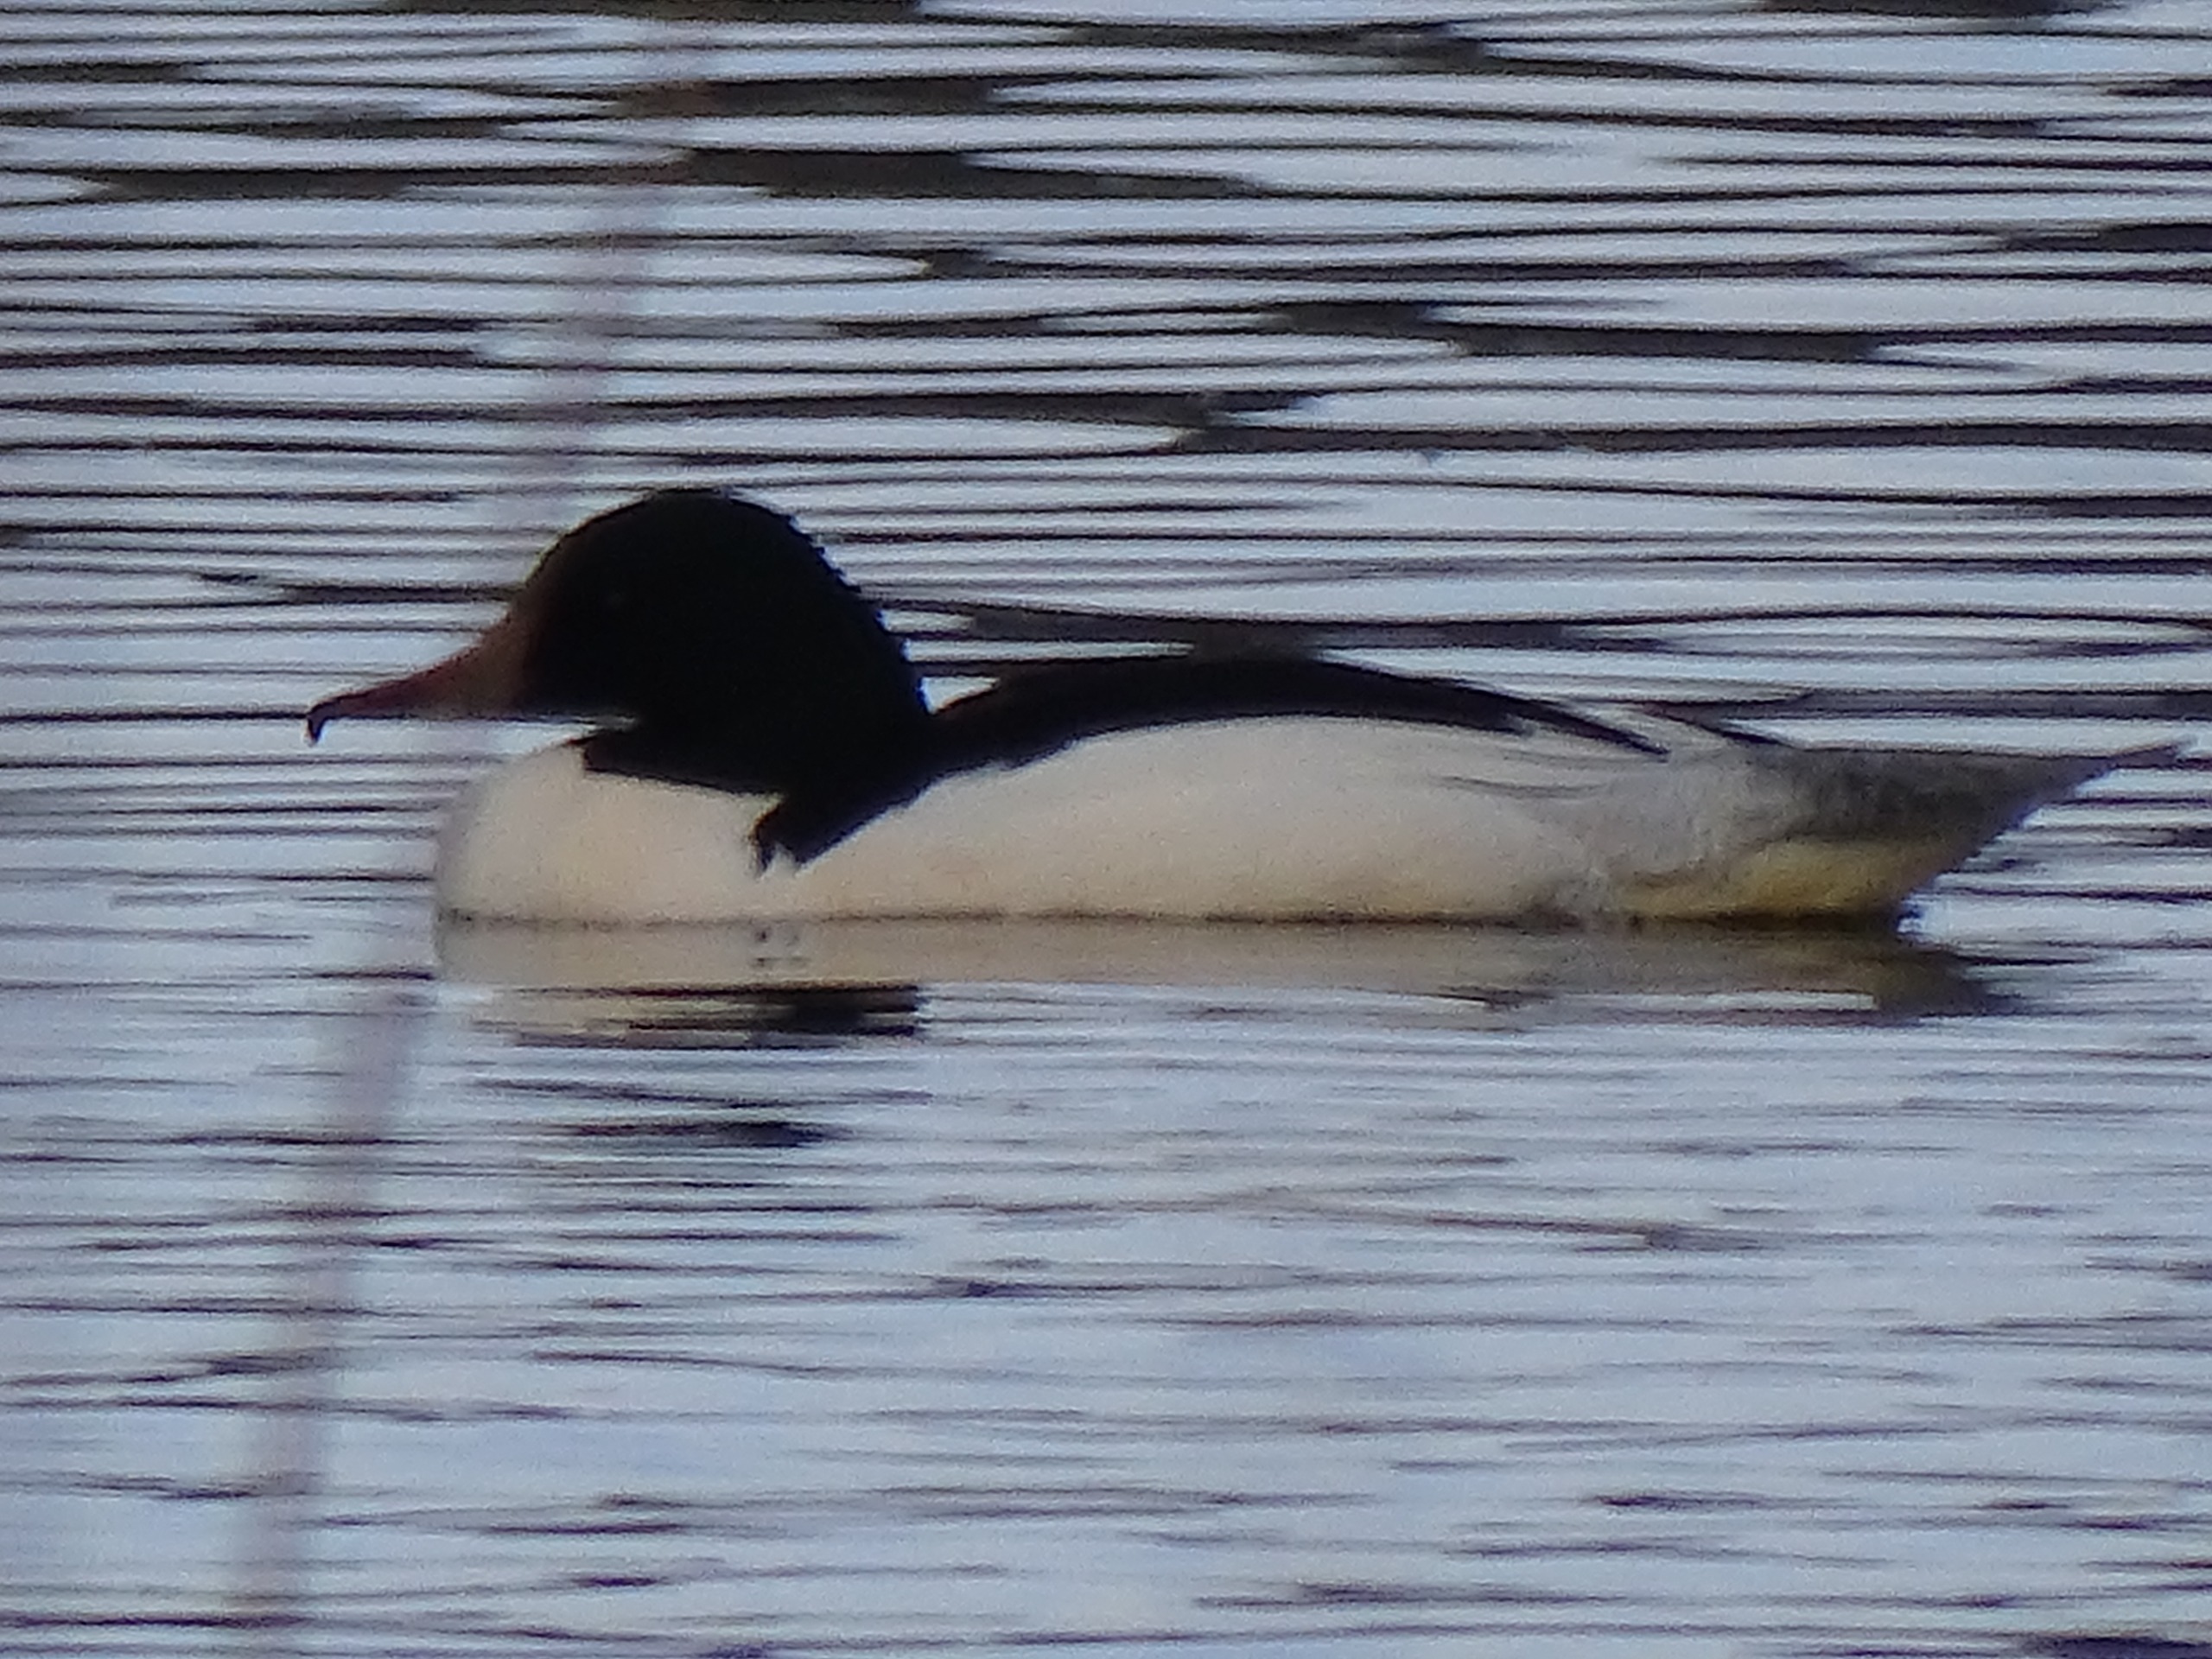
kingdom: Animalia
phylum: Chordata
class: Aves
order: Anseriformes
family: Anatidae
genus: Mergus
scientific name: Mergus merganser
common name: Stor skallesluger
